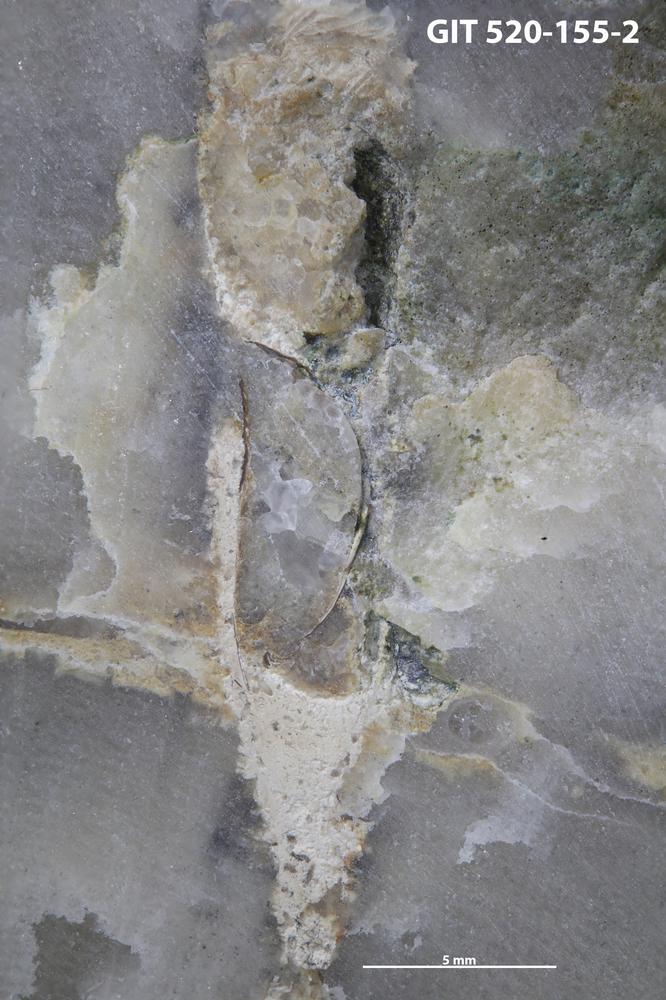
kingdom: Animalia
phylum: Brachiopoda
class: Lingulata
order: Lingulida
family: Zhanatellidae
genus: Rowellella
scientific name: Rowellella
